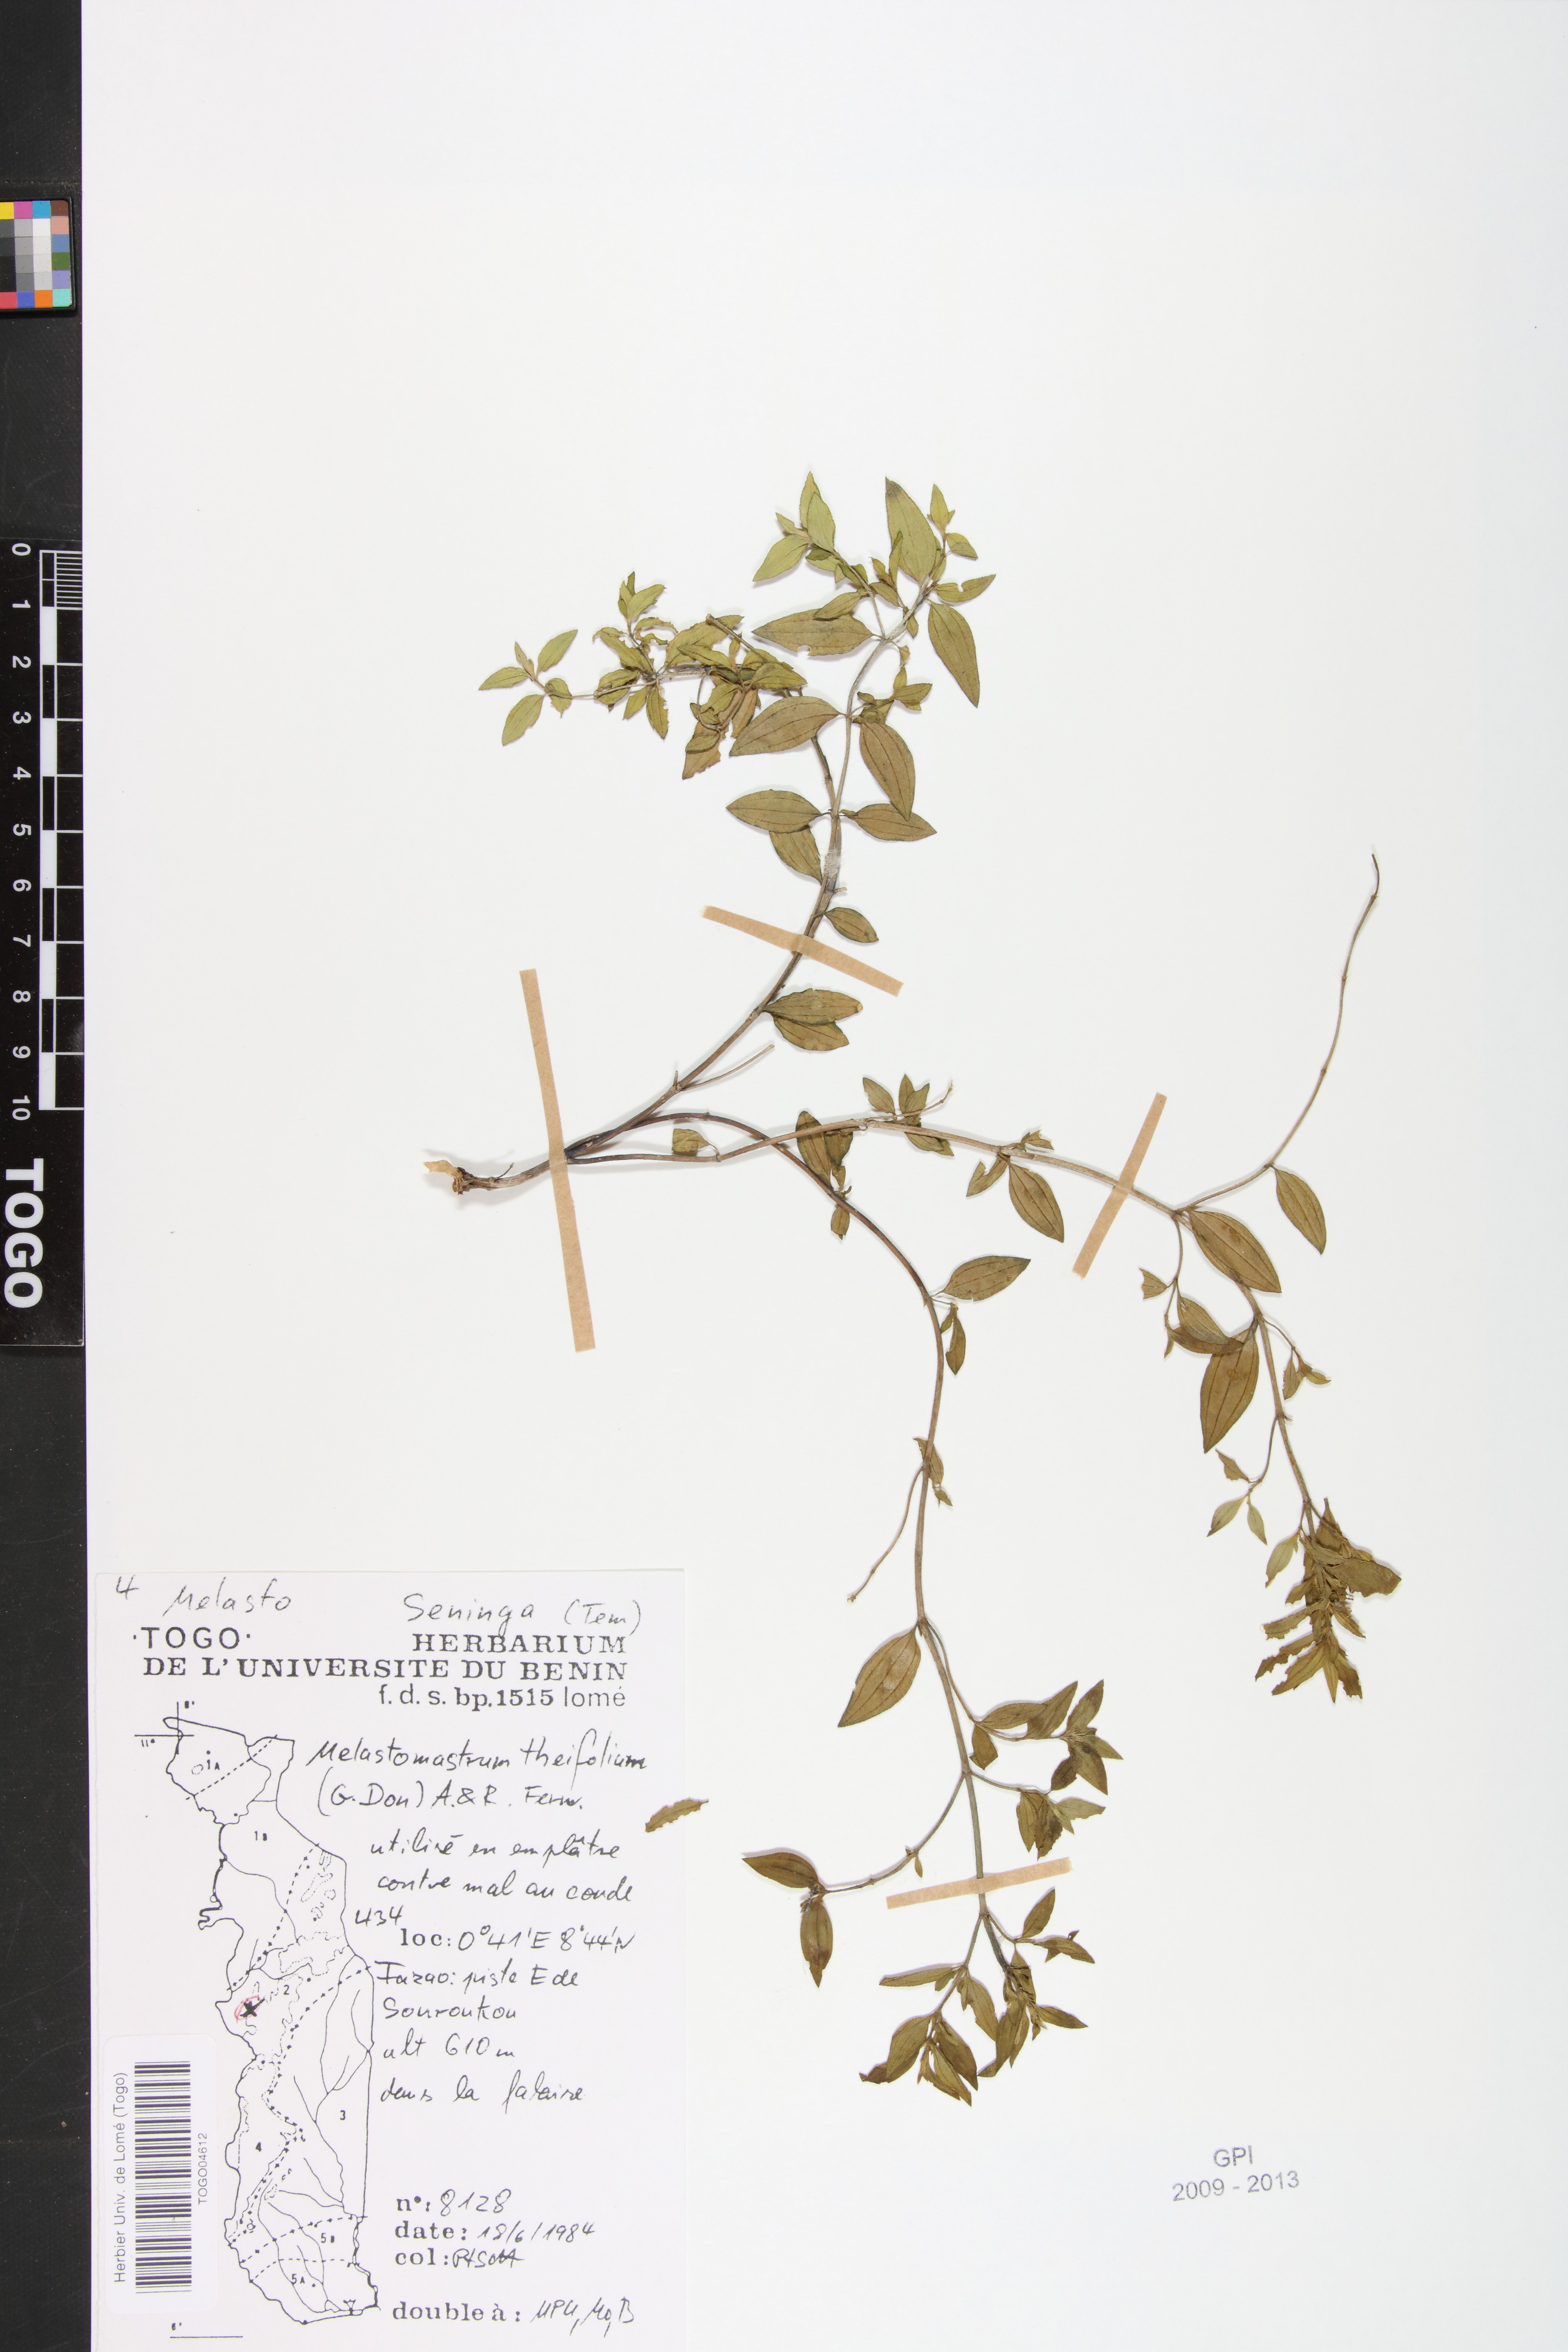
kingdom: Plantae
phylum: Tracheophyta
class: Magnoliopsida
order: Myrtales
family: Melastomataceae
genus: Melastomastrum
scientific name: Melastomastrum theifolium
